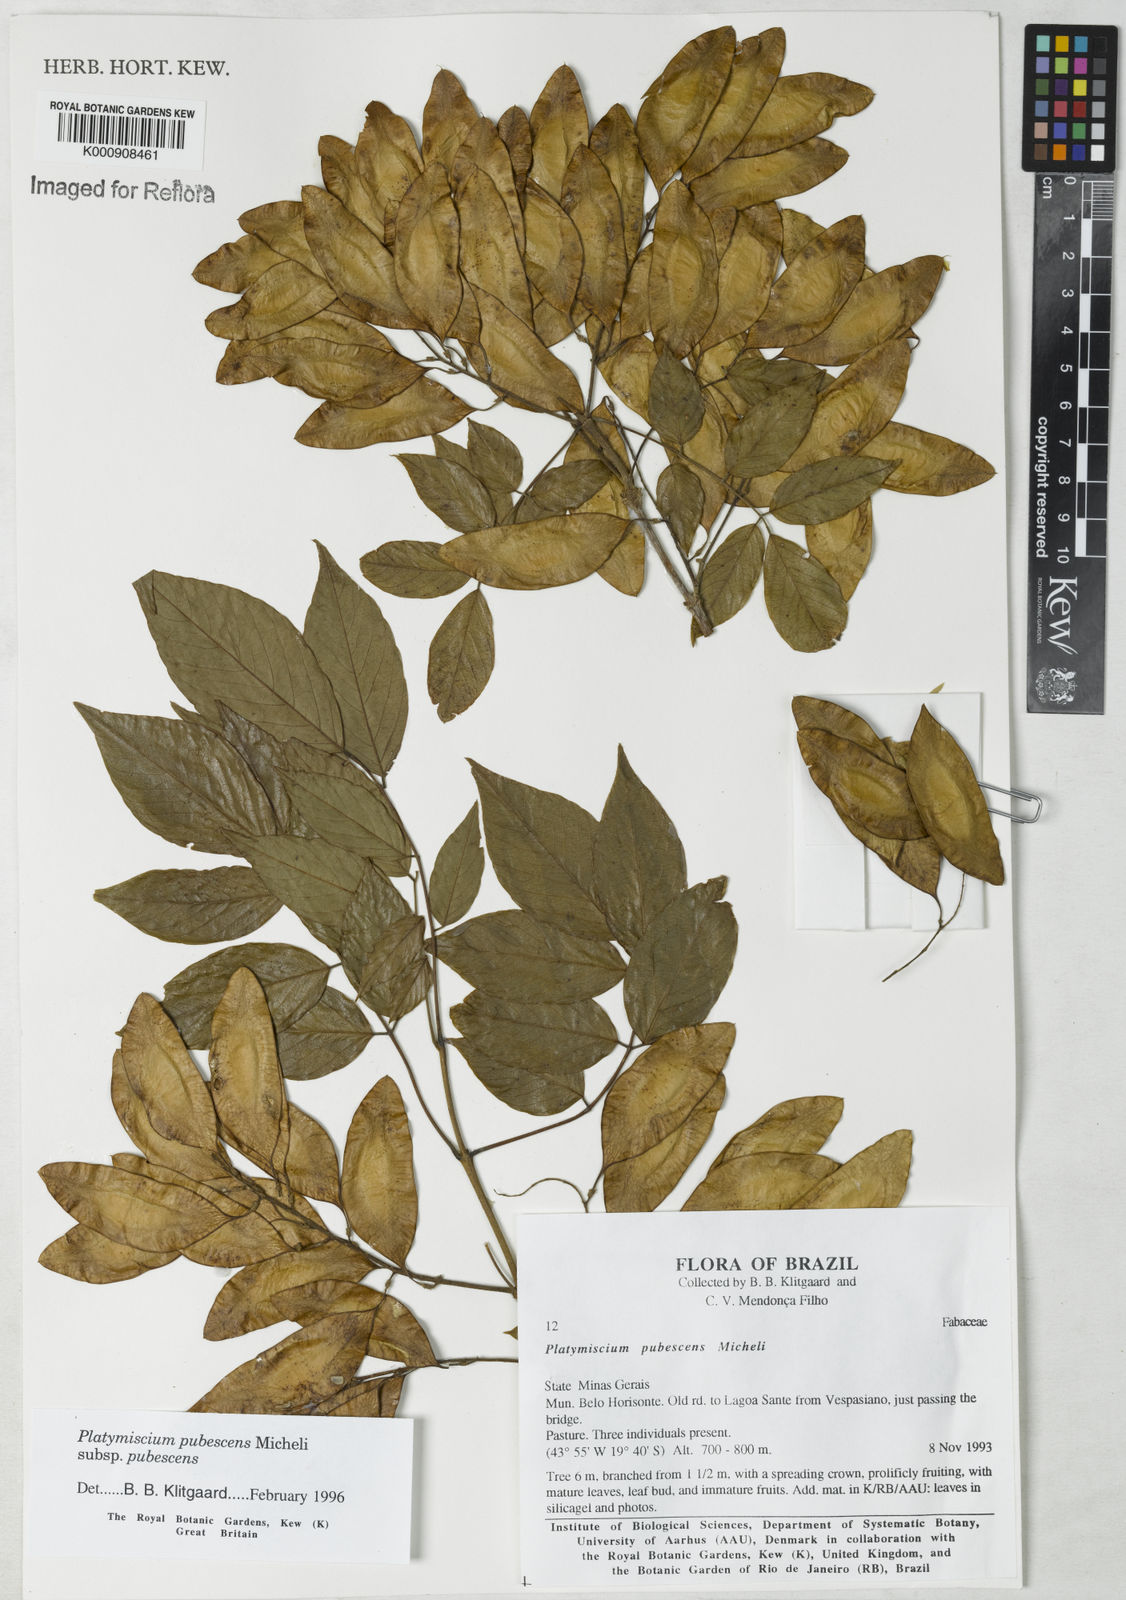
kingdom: Plantae
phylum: Tracheophyta
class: Magnoliopsida
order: Fabales
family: Fabaceae
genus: Platymiscium
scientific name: Platymiscium pubescens
